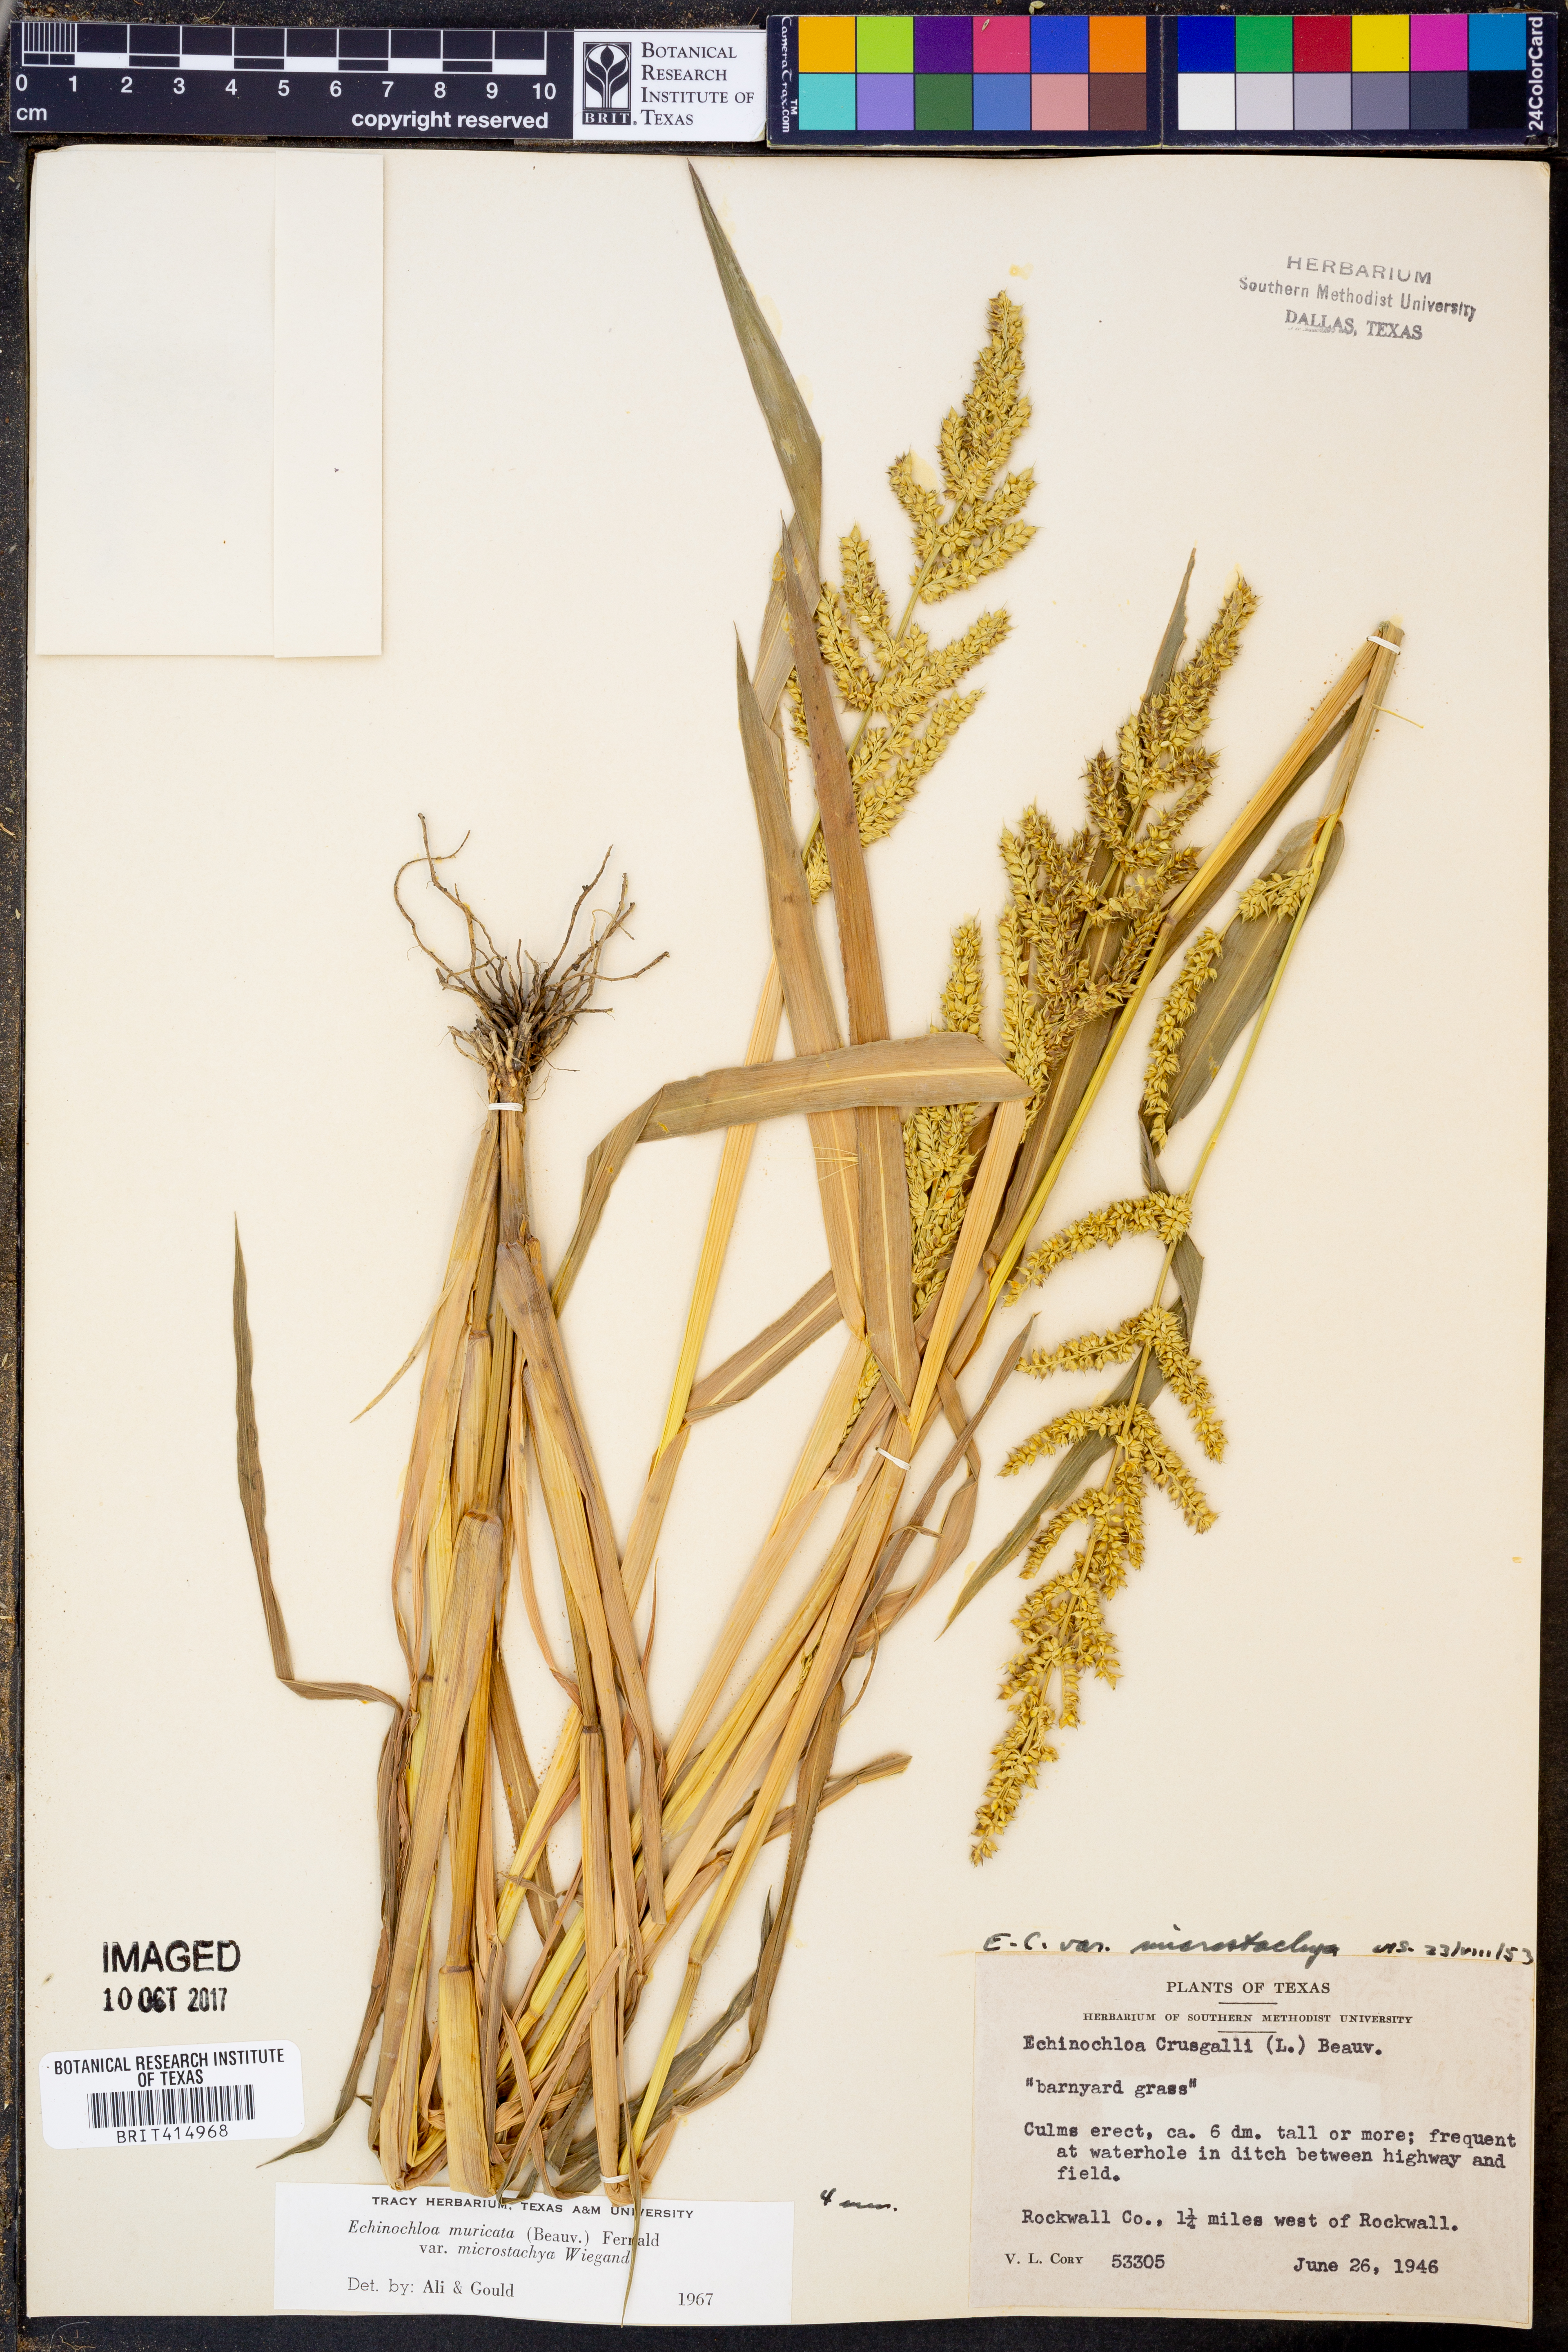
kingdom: Plantae
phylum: Tracheophyta
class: Liliopsida
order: Poales
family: Poaceae
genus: Echinochloa
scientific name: Echinochloa muricata
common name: American barnyard grass
